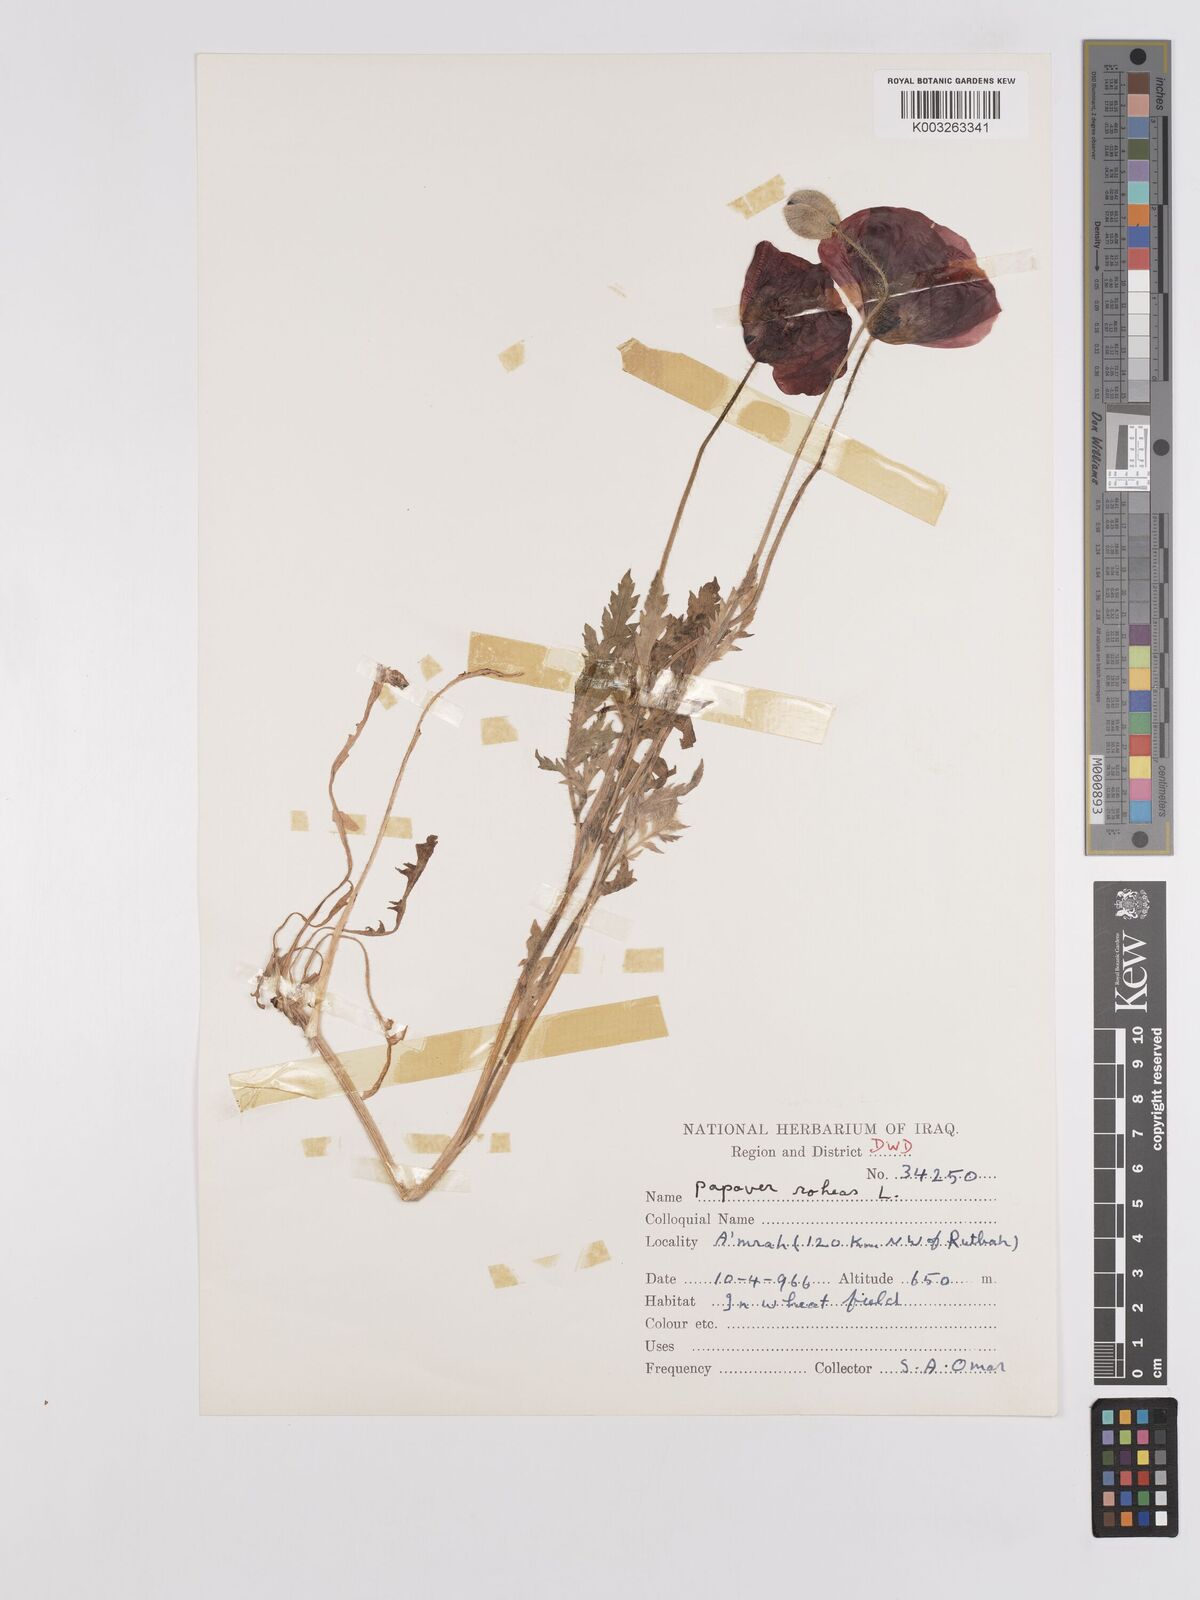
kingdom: Plantae
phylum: Tracheophyta
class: Magnoliopsida
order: Ranunculales
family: Papaveraceae
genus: Papaver
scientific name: Papaver rhoeas
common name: Corn poppy
